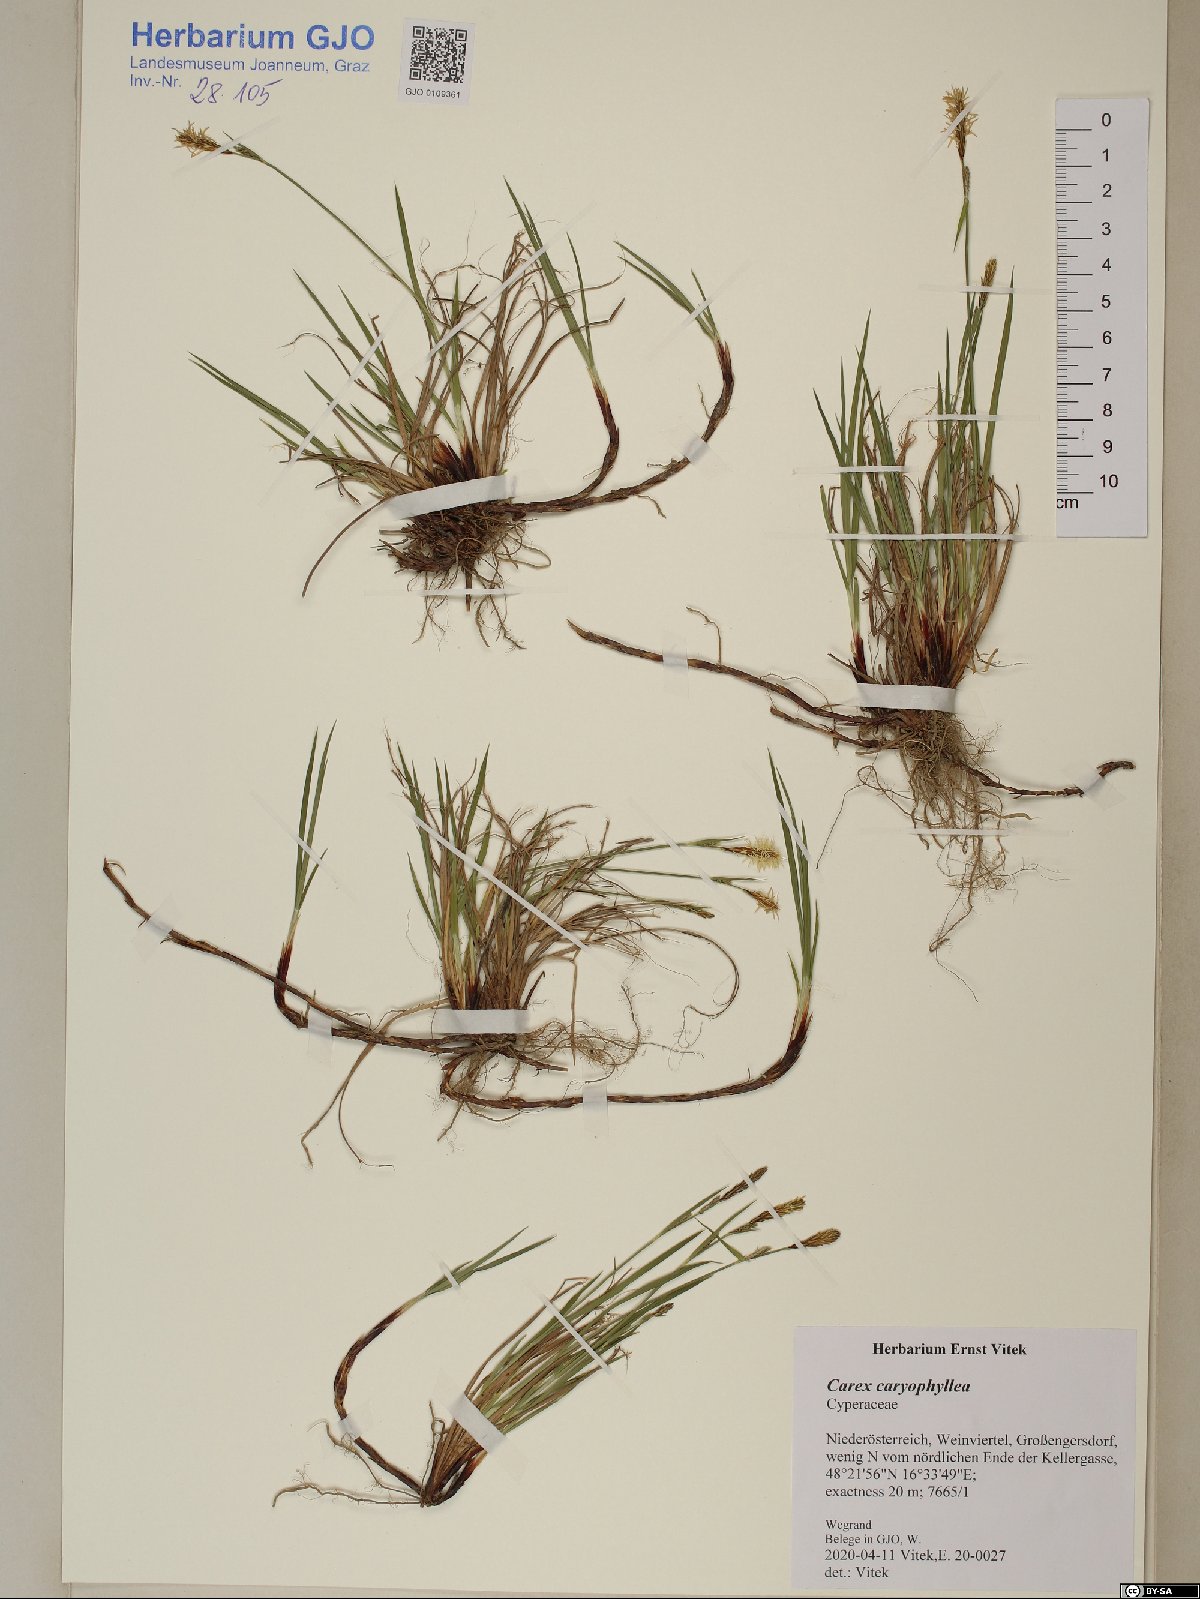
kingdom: Plantae
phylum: Tracheophyta
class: Liliopsida
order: Poales
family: Cyperaceae
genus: Carex
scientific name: Carex tomentosa
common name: Downy-fruited sedge
